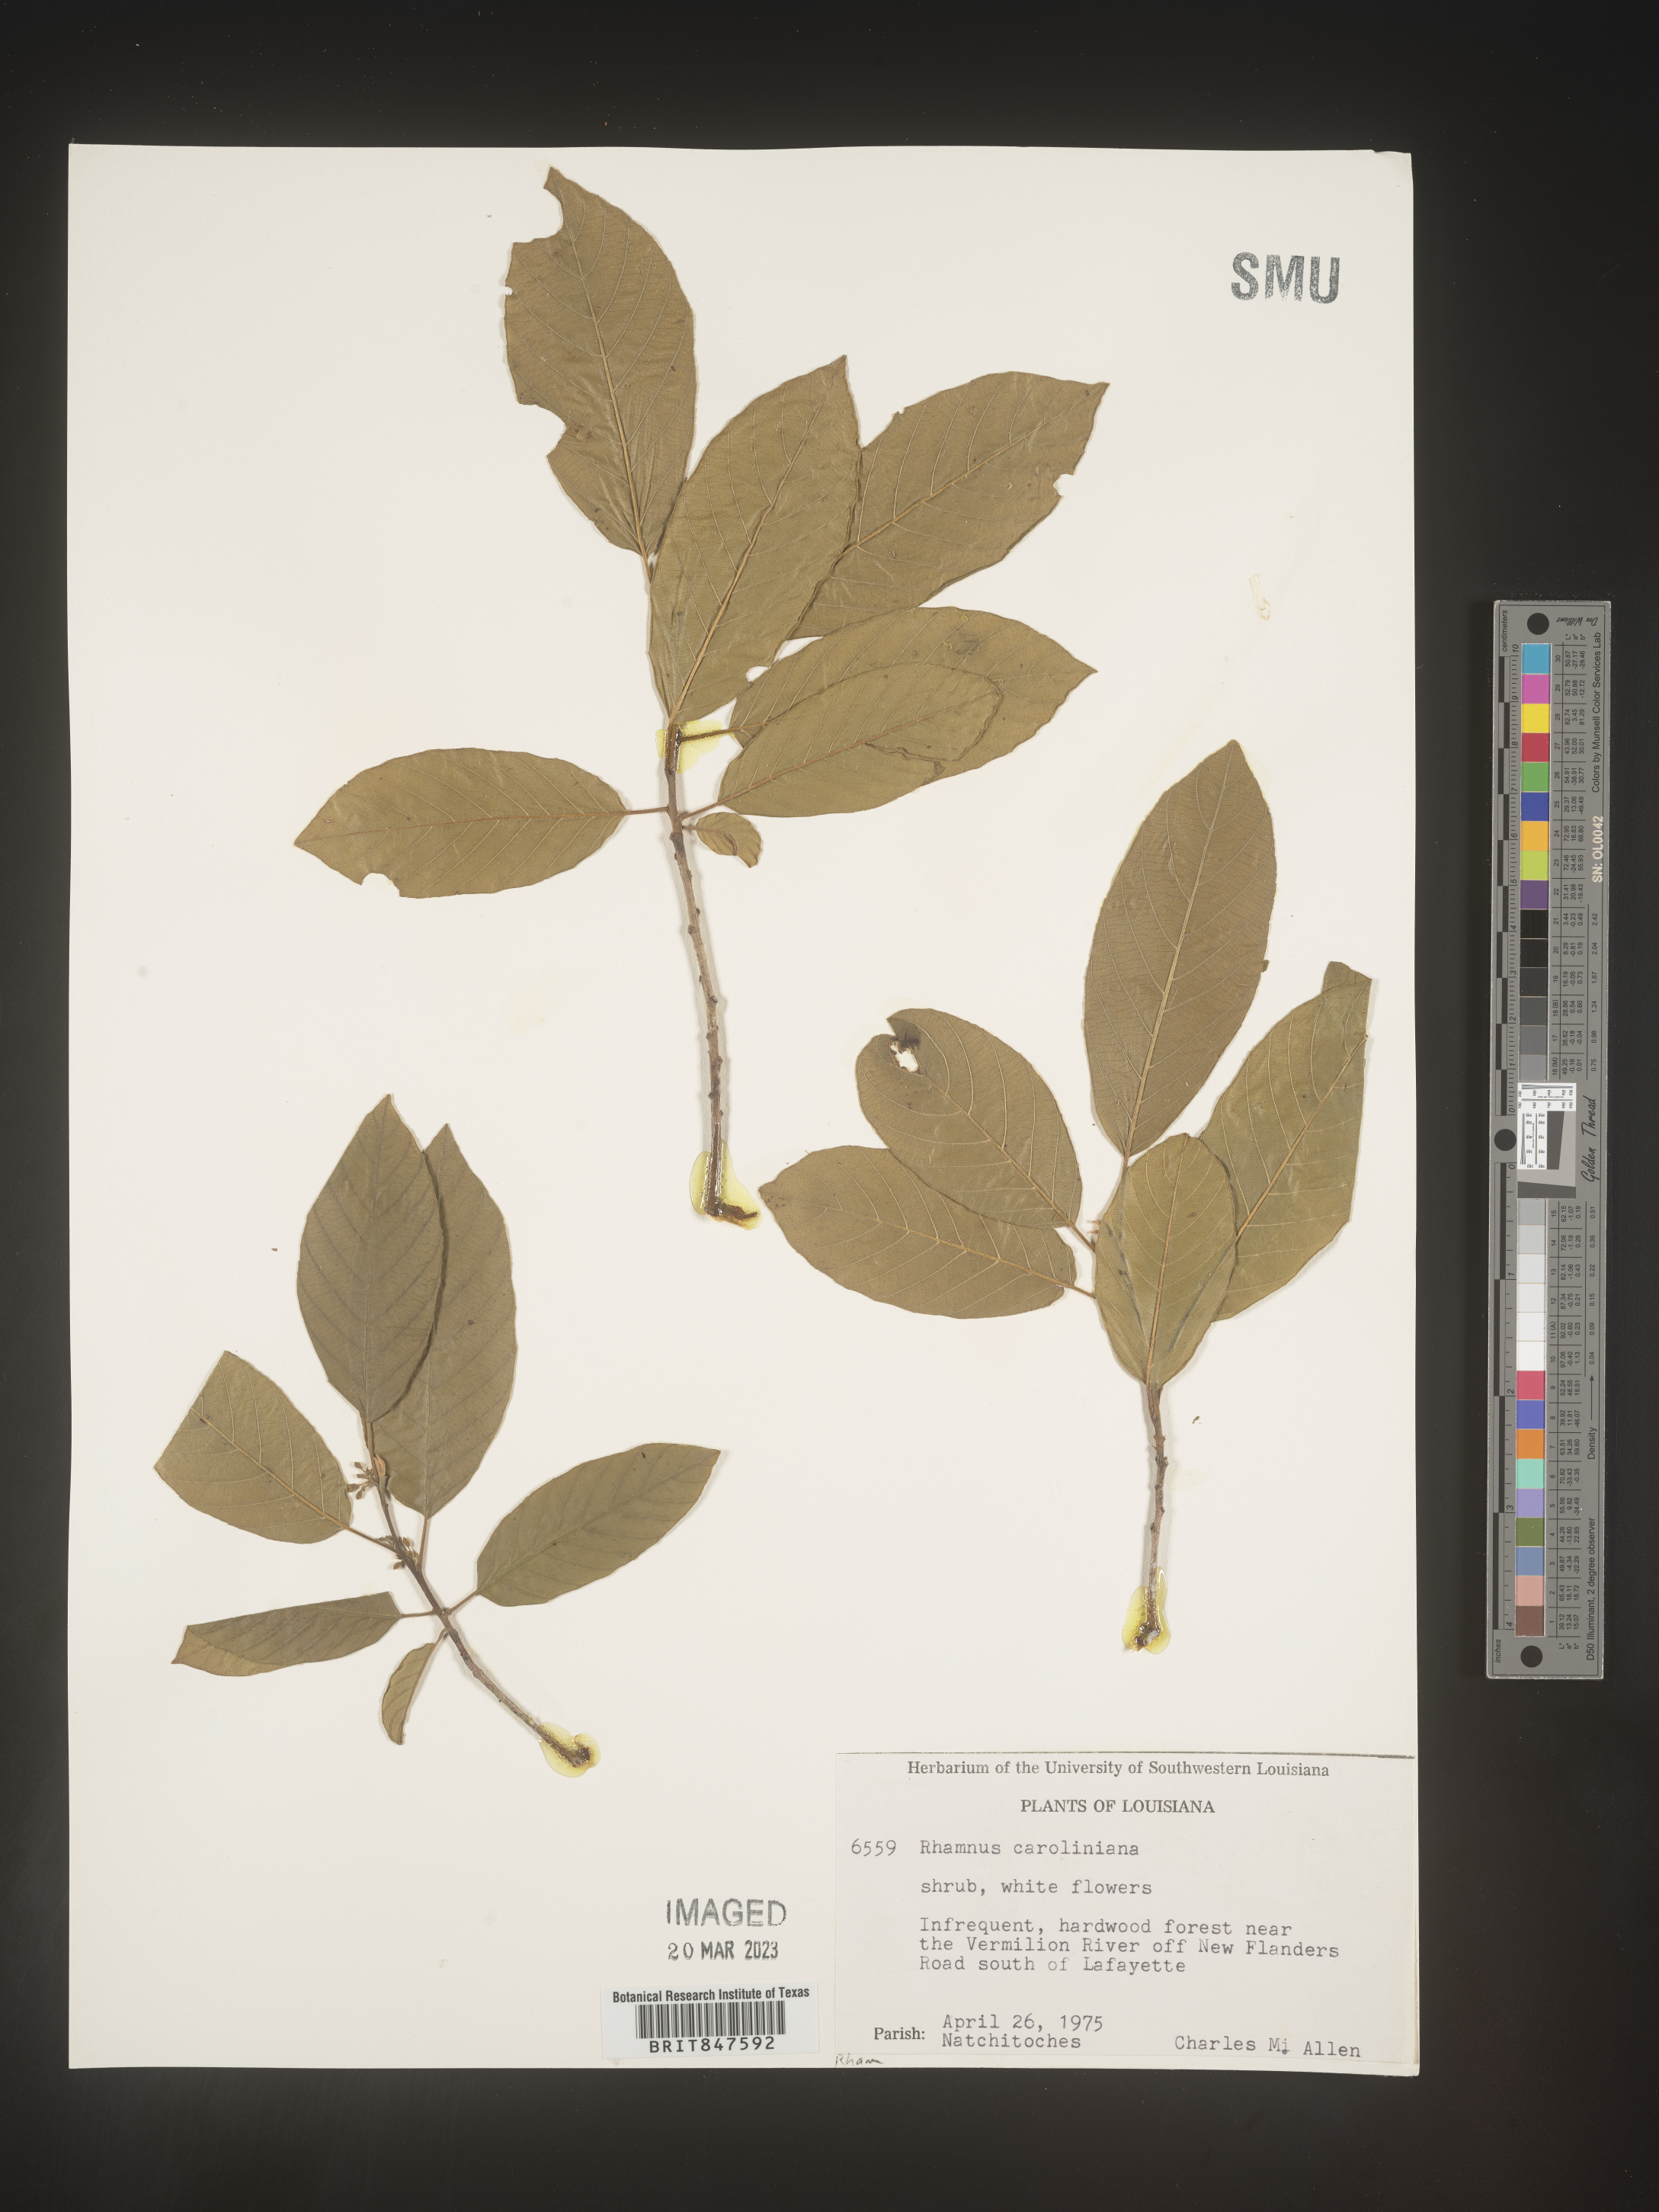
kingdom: Plantae
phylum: Tracheophyta
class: Magnoliopsida
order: Rosales
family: Rhamnaceae
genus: Frangula
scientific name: Frangula caroliniana
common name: Carolina buckthorn
